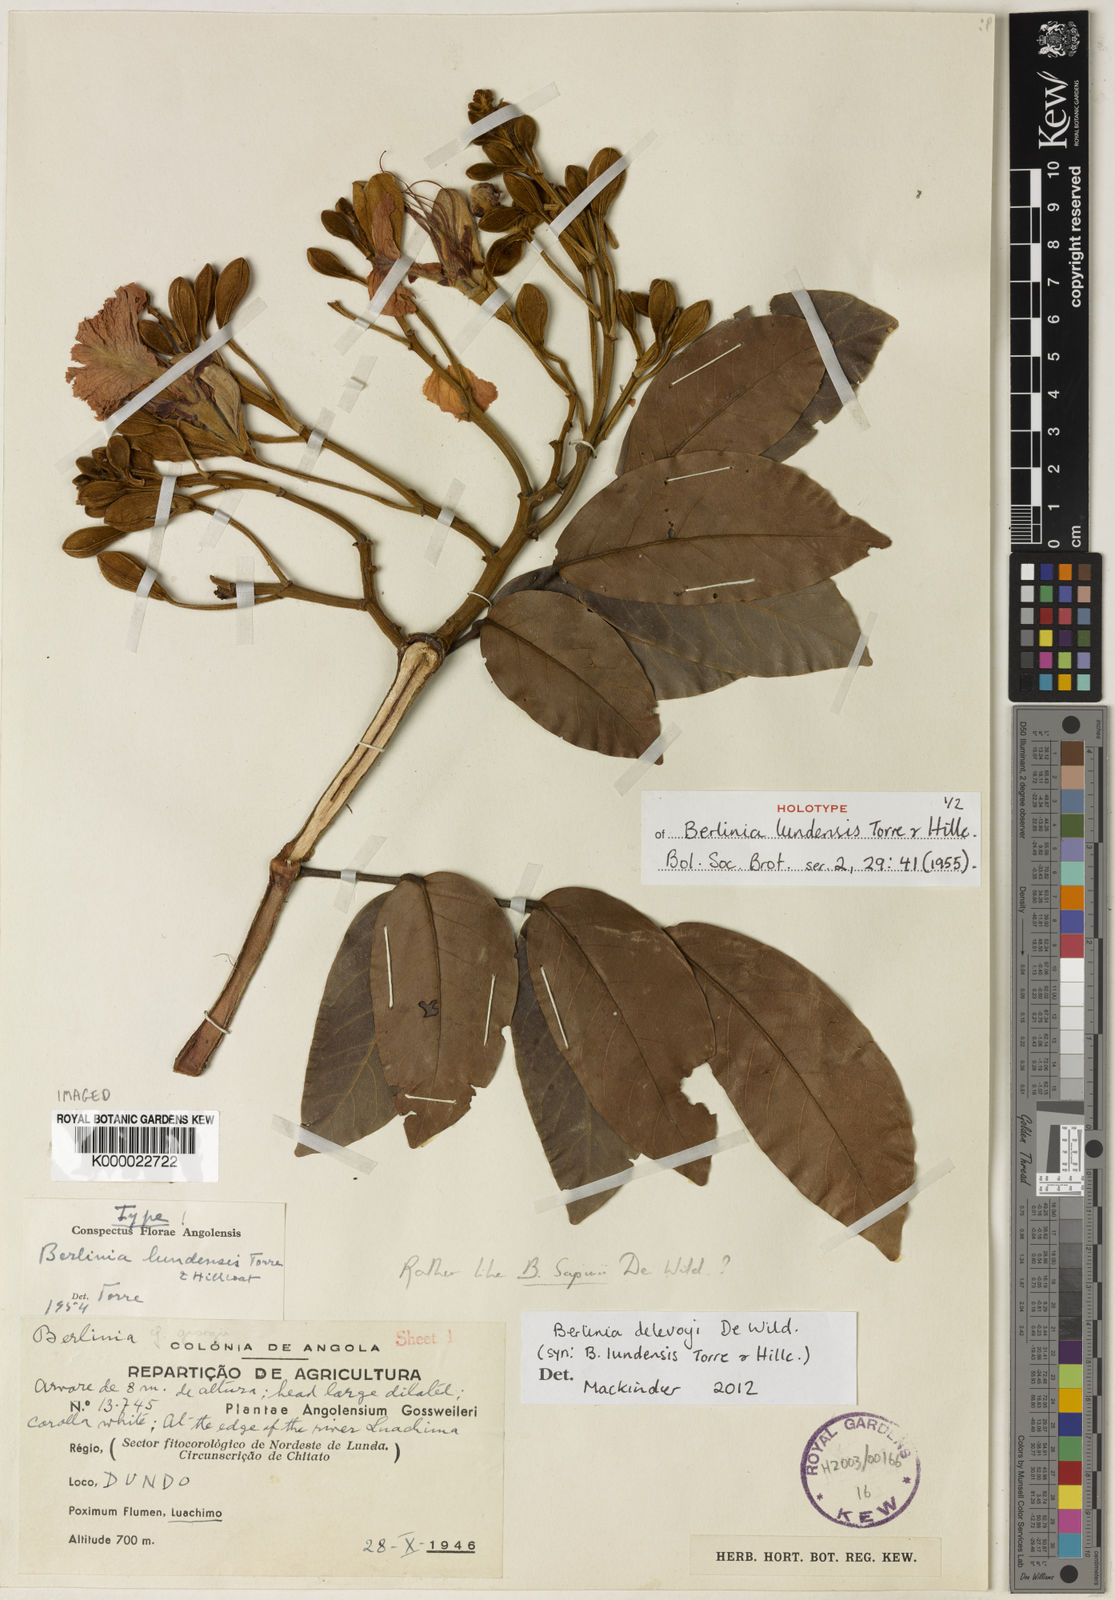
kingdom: Plantae
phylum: Tracheophyta
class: Magnoliopsida
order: Fabales
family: Fabaceae
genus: Berlinia
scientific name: Berlinia delevoyi
